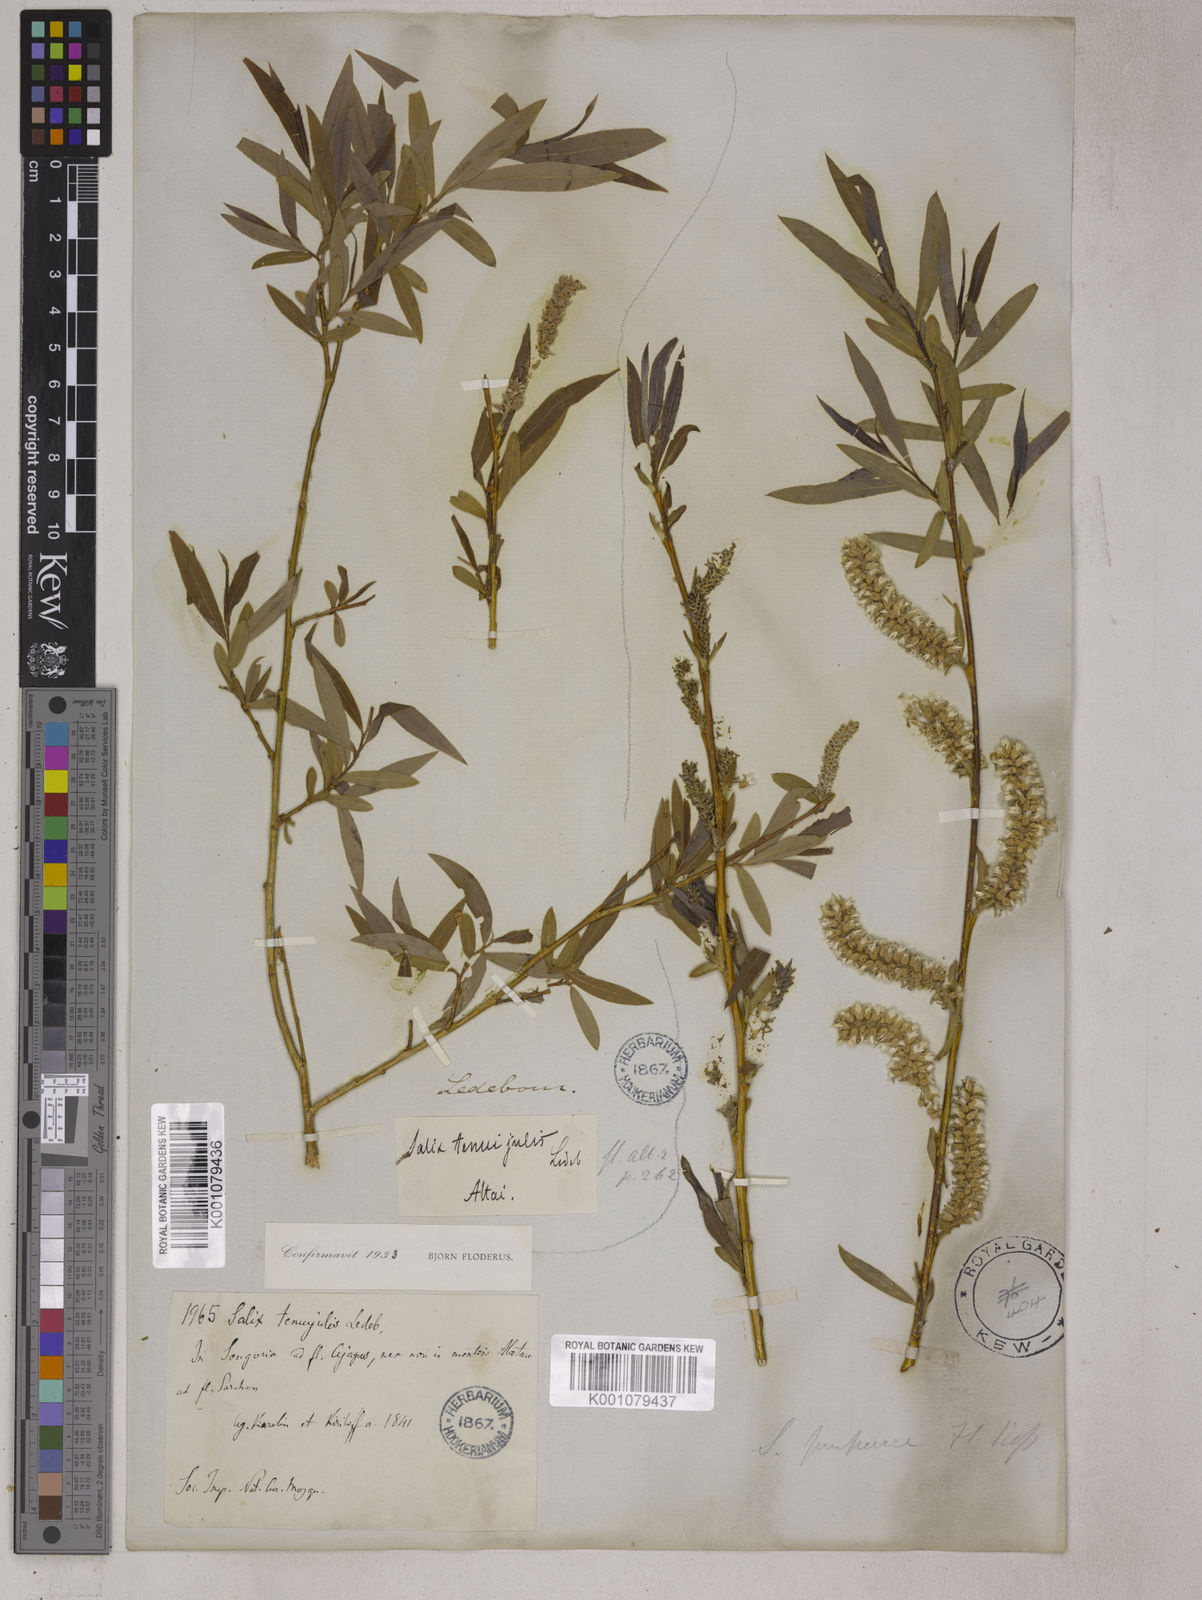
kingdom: Plantae
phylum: Tracheophyta
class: Magnoliopsida
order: Malpighiales
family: Salicaceae
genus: Salix
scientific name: Salix tenuijulis
